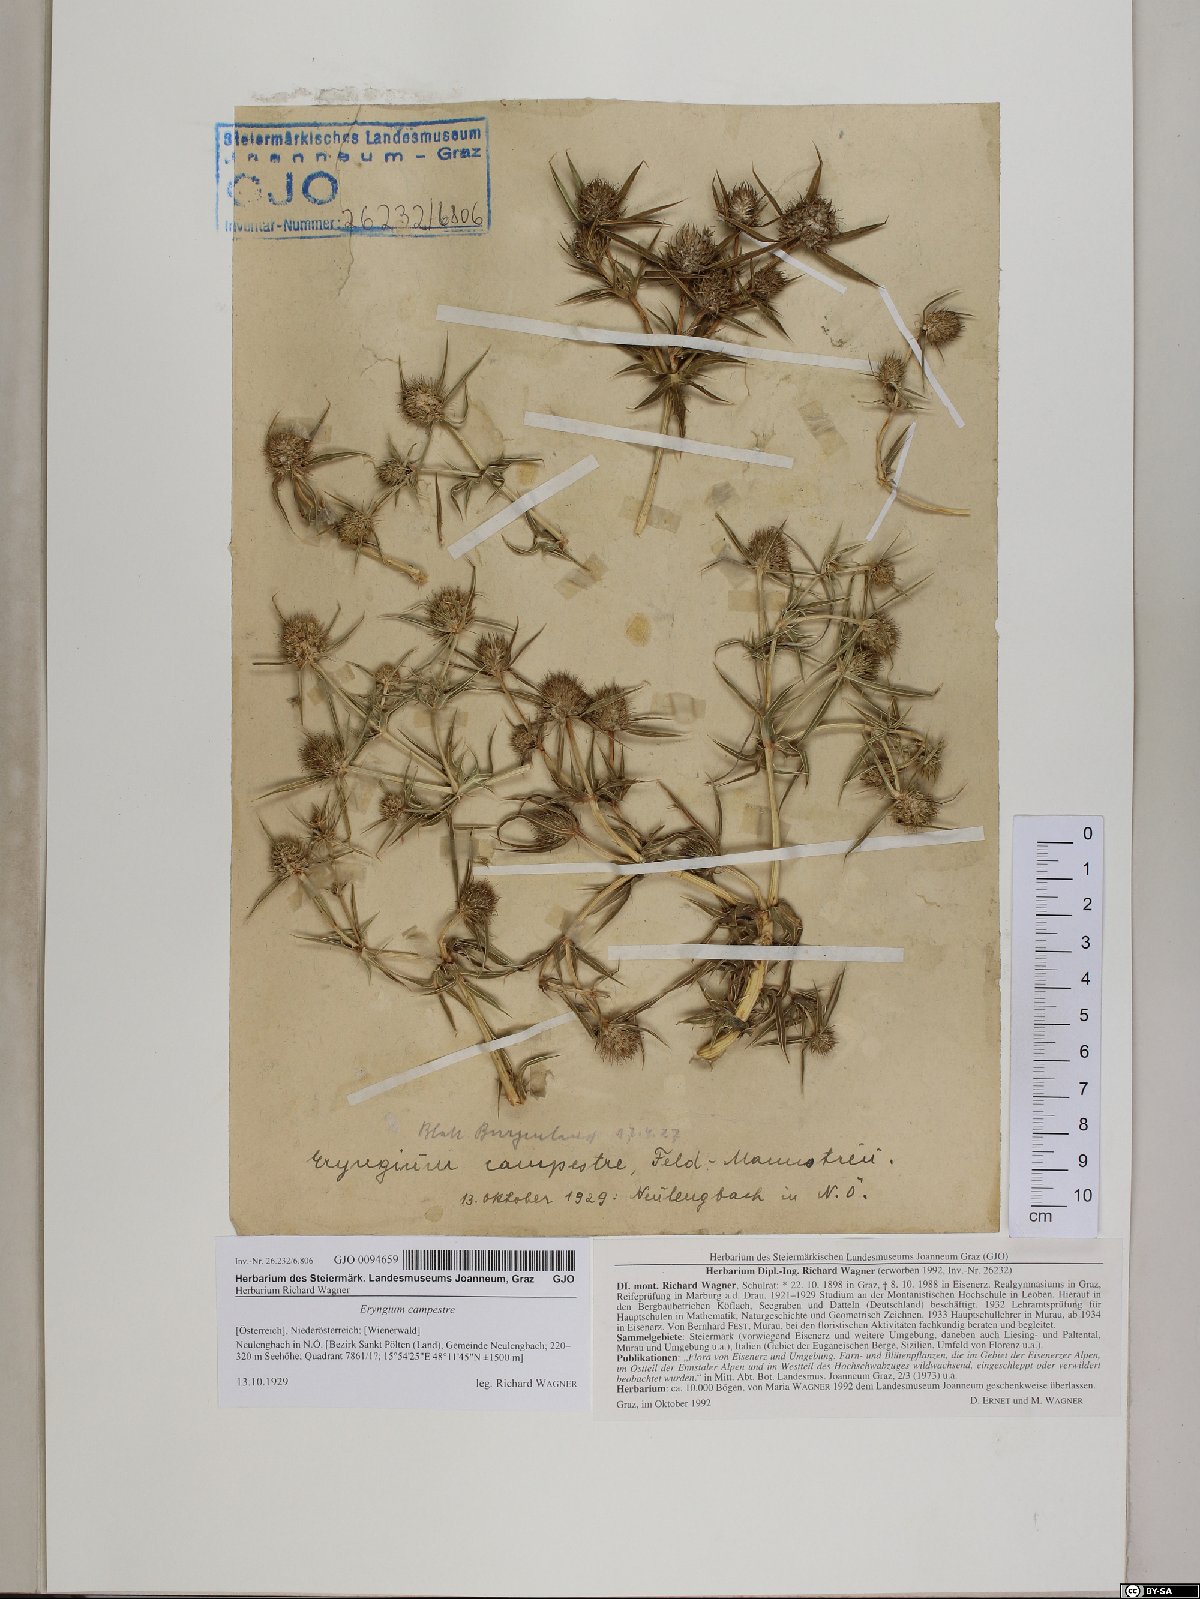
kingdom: Plantae
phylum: Tracheophyta
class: Magnoliopsida
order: Apiales
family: Apiaceae
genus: Eryngium
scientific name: Eryngium campestre
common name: Field eryngo
